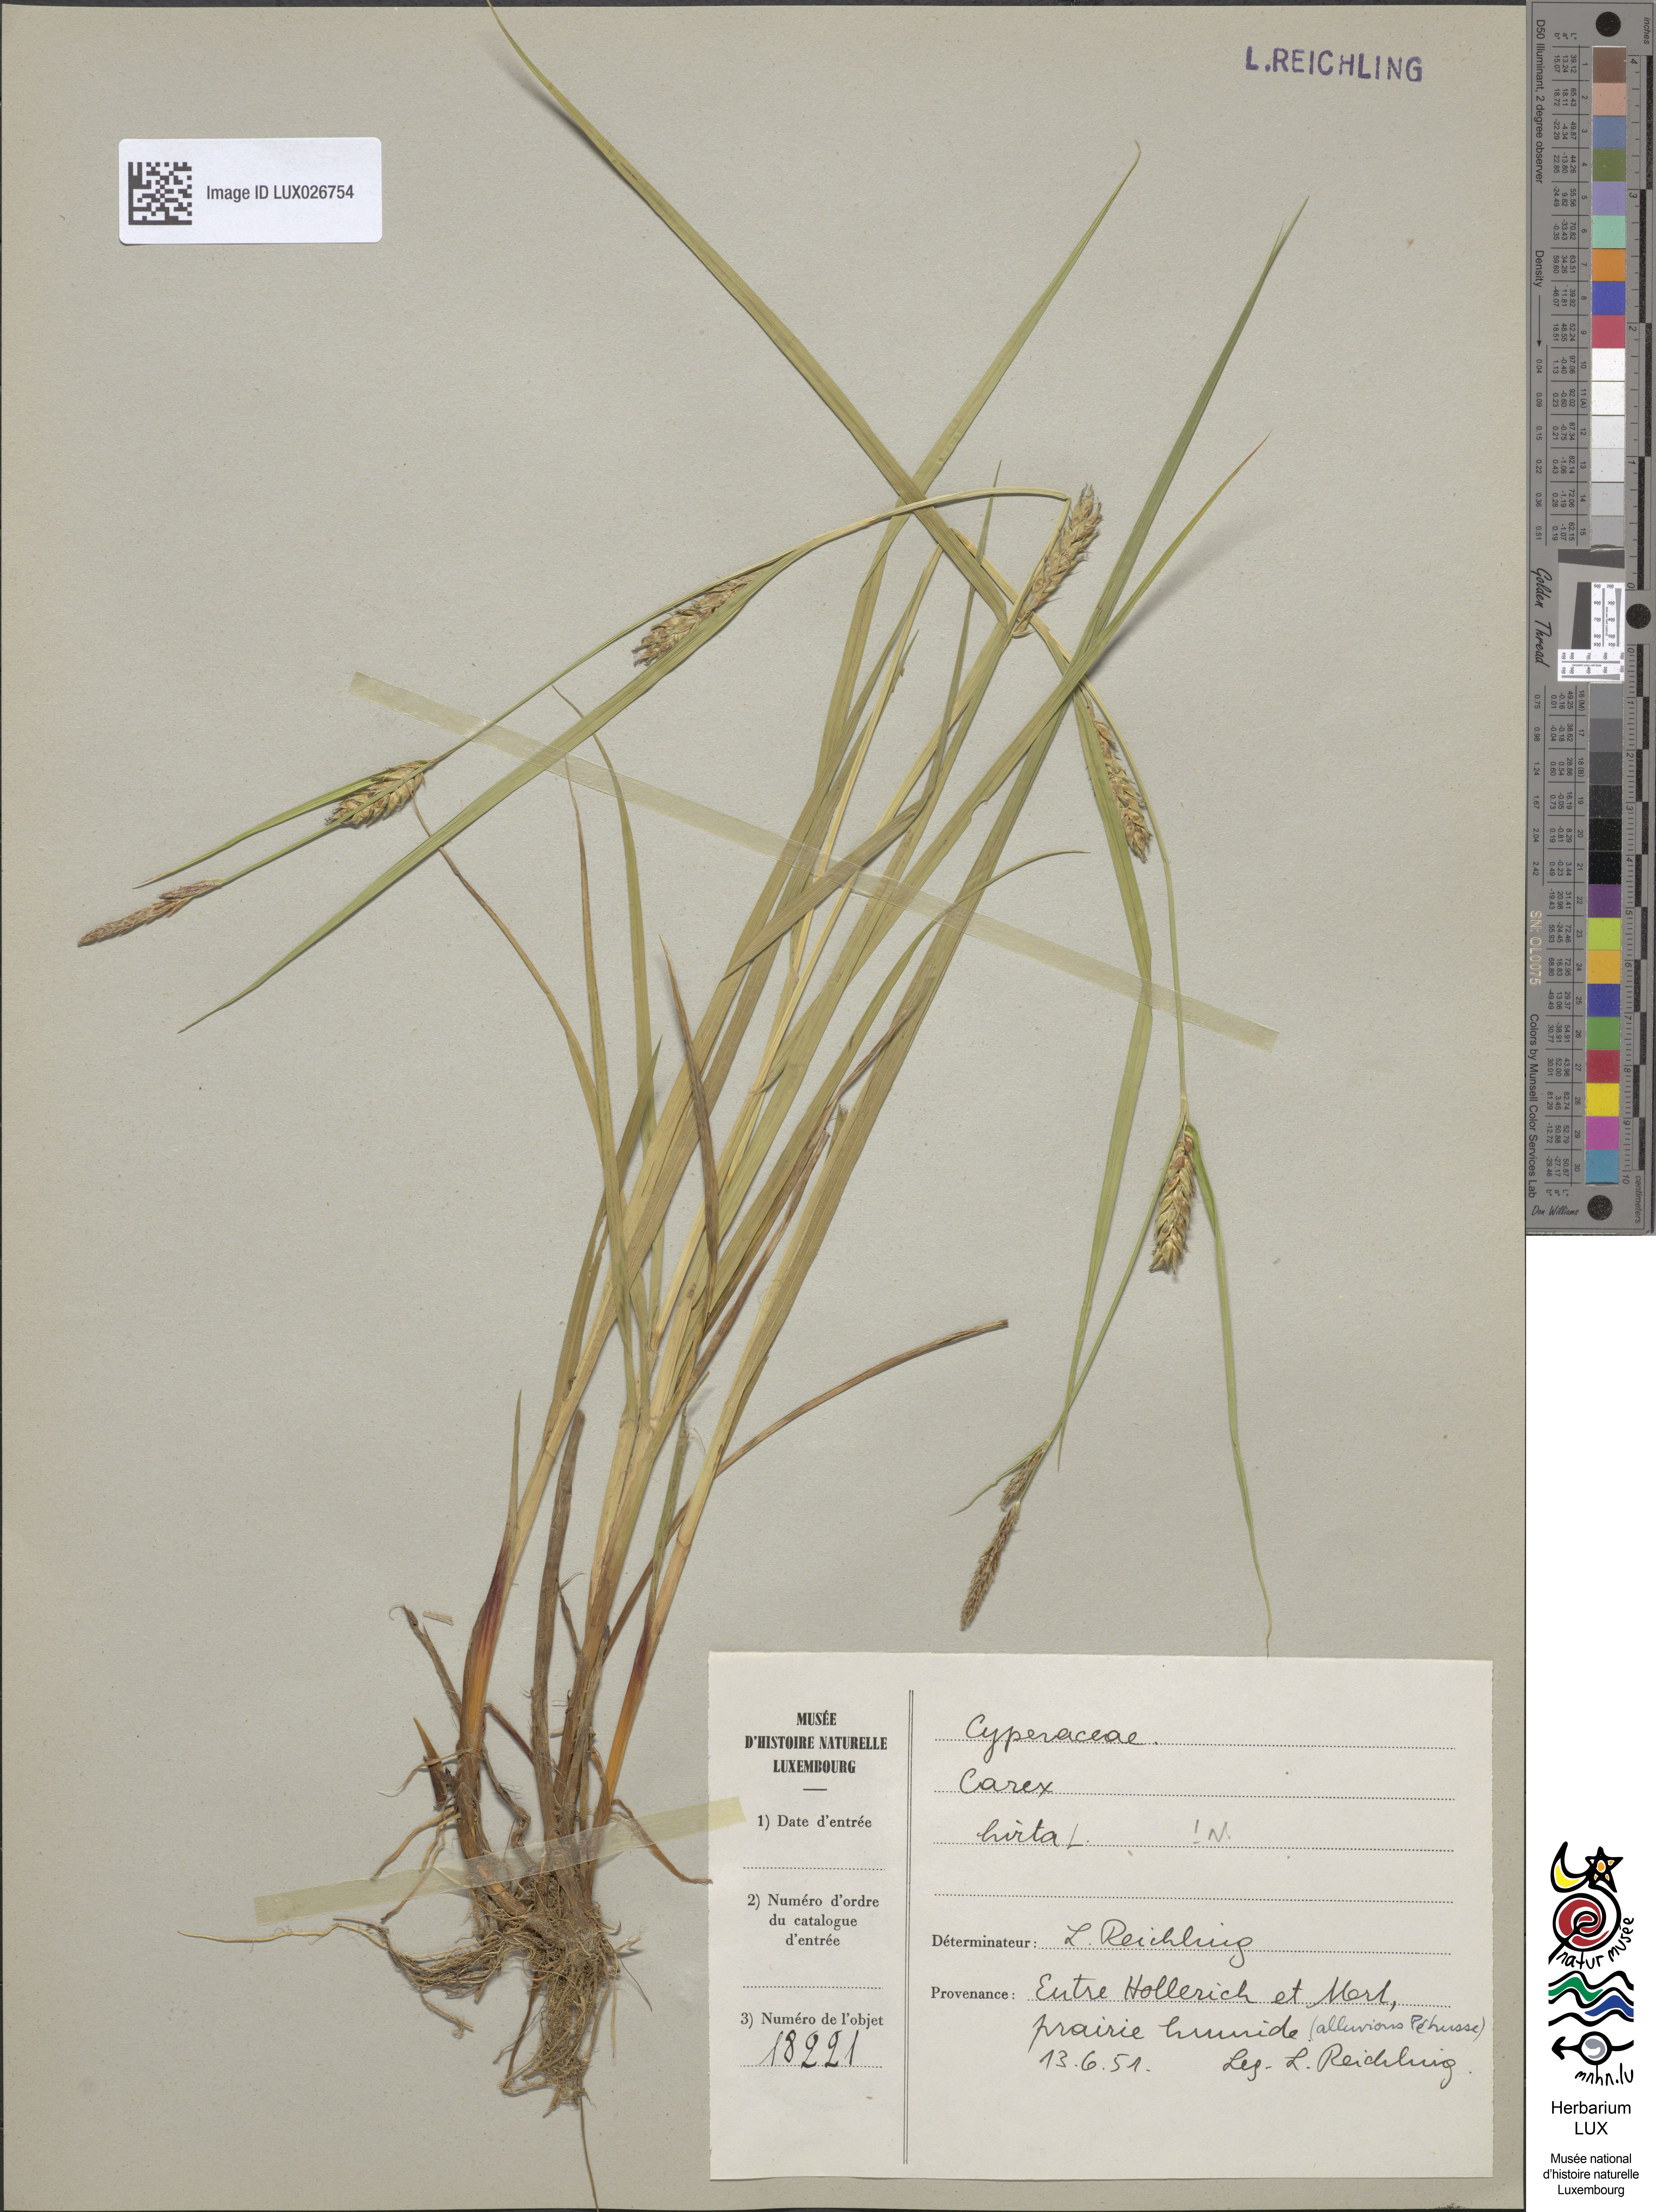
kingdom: Plantae
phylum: Tracheophyta
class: Liliopsida
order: Poales
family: Cyperaceae
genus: Carex
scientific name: Carex hirta
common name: Hairy sedge
